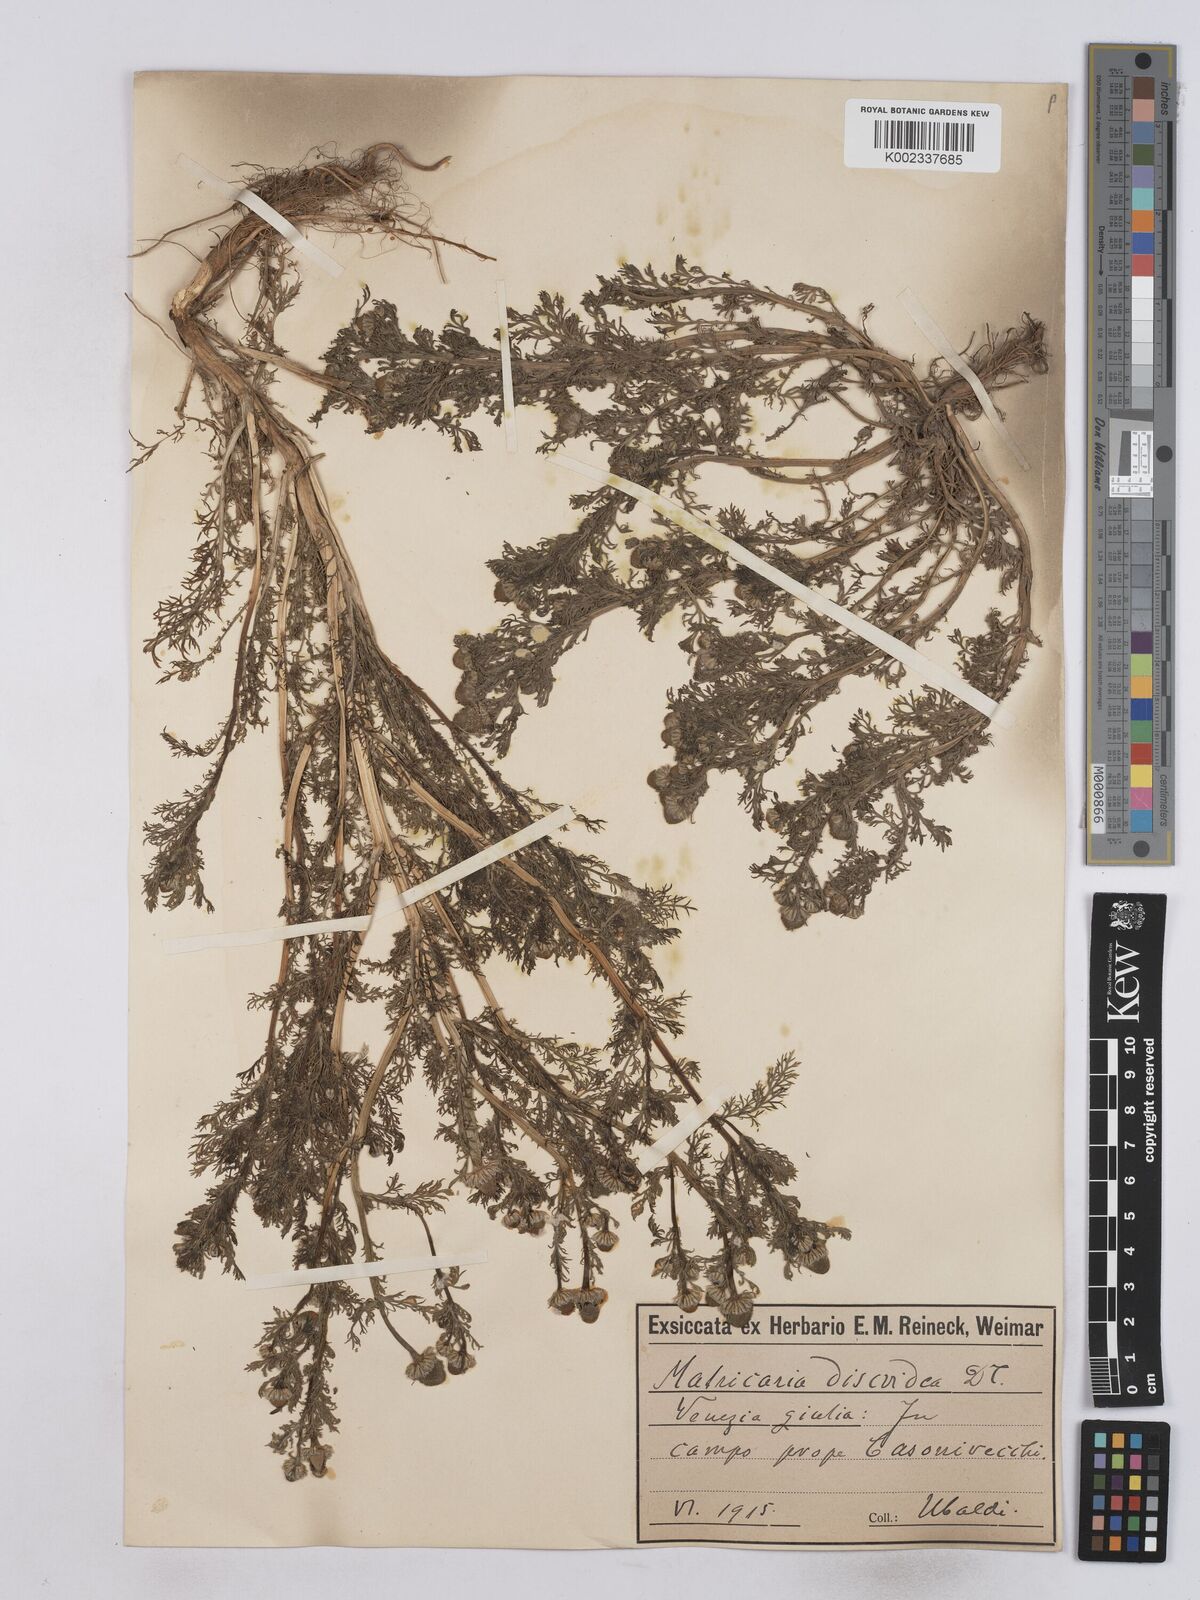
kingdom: Plantae
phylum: Tracheophyta
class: Magnoliopsida
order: Asterales
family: Asteraceae
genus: Matricaria
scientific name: Matricaria discoidea
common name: Disc mayweed
